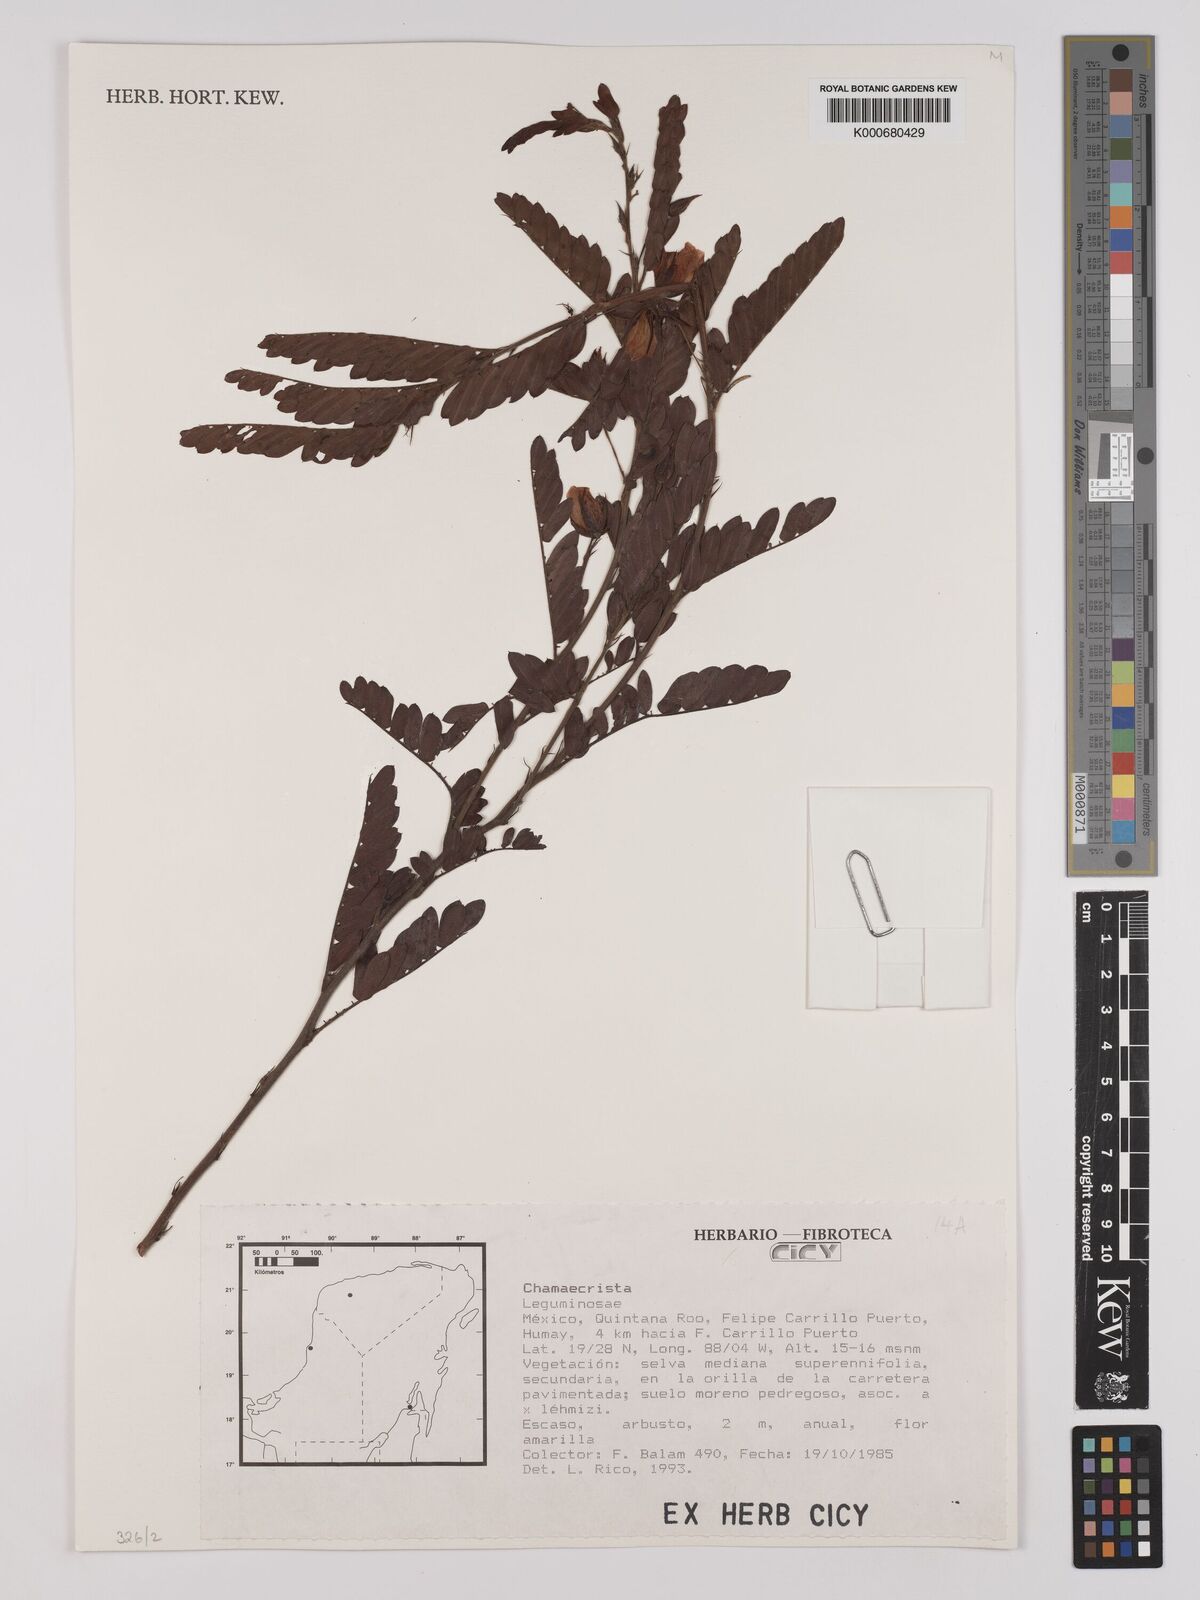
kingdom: Plantae
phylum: Tracheophyta
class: Magnoliopsida
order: Fabales
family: Fabaceae
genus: Chamaecrista
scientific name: Chamaecrista
